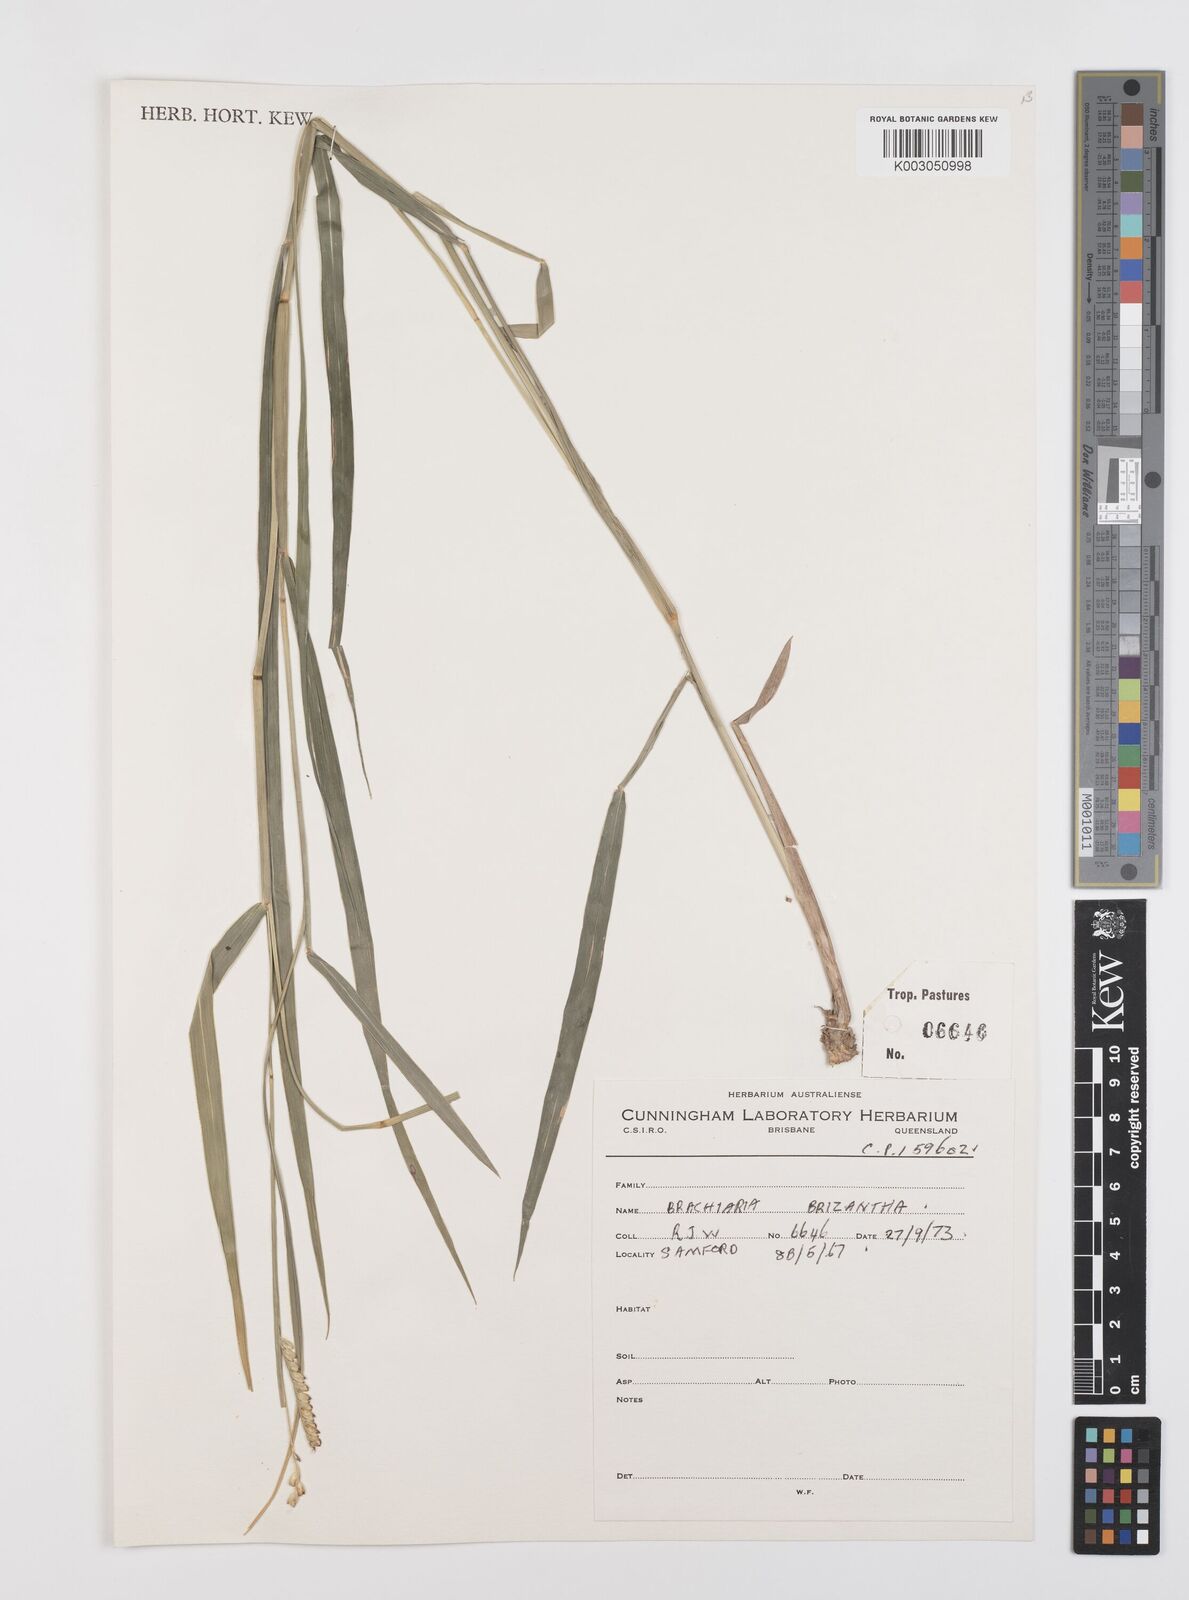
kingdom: Plantae
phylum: Tracheophyta
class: Liliopsida
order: Poales
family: Poaceae
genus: Urochloa
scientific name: Urochloa brizantha
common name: Palisade signalgrass
